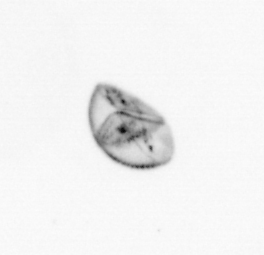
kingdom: Chromista
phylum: Ochrophyta
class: Bacillariophyceae
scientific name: Bacillariophyceae
